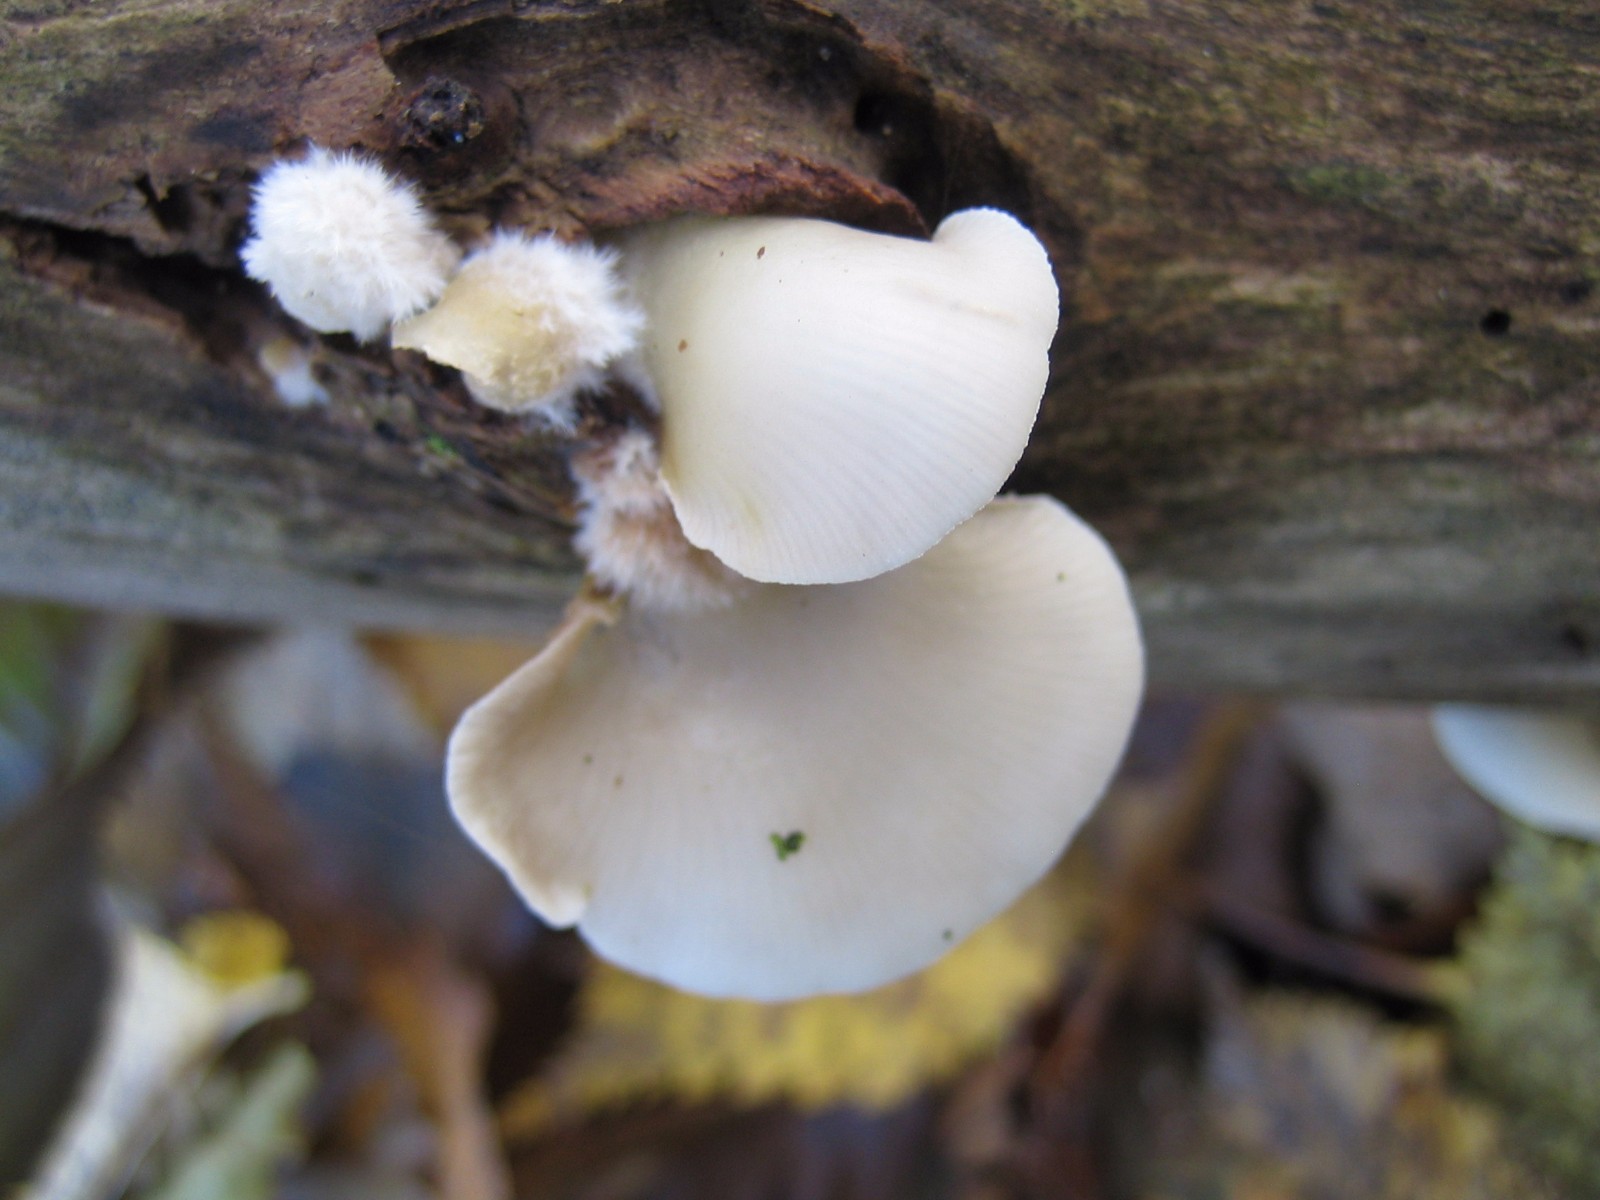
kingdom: Fungi
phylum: Basidiomycota
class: Agaricomycetes
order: Agaricales
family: Crepidotaceae
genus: Crepidotus
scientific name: Crepidotus mollis
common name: blød muslingesvamp
